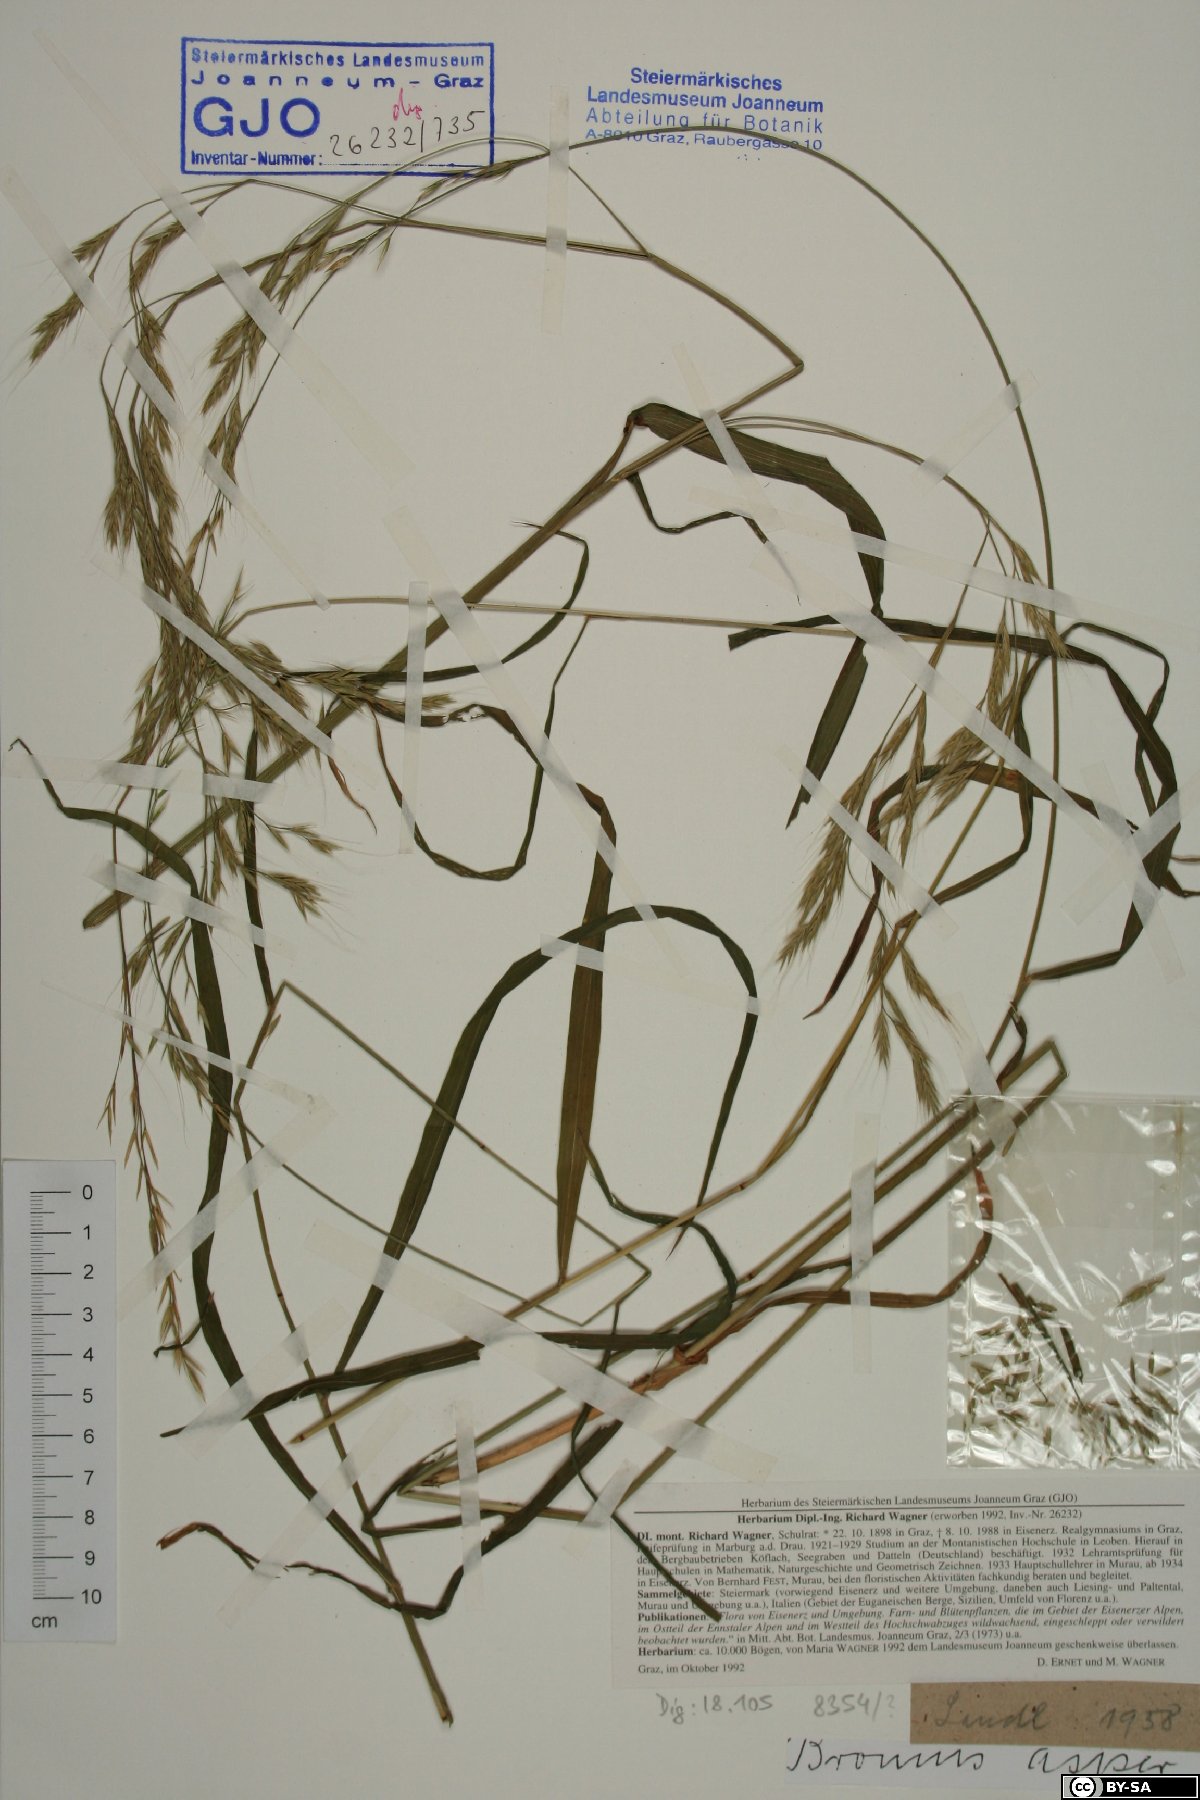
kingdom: Plantae
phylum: Tracheophyta
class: Liliopsida
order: Poales
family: Poaceae
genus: Bromus
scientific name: Bromus ramosus
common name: Hairy brome
